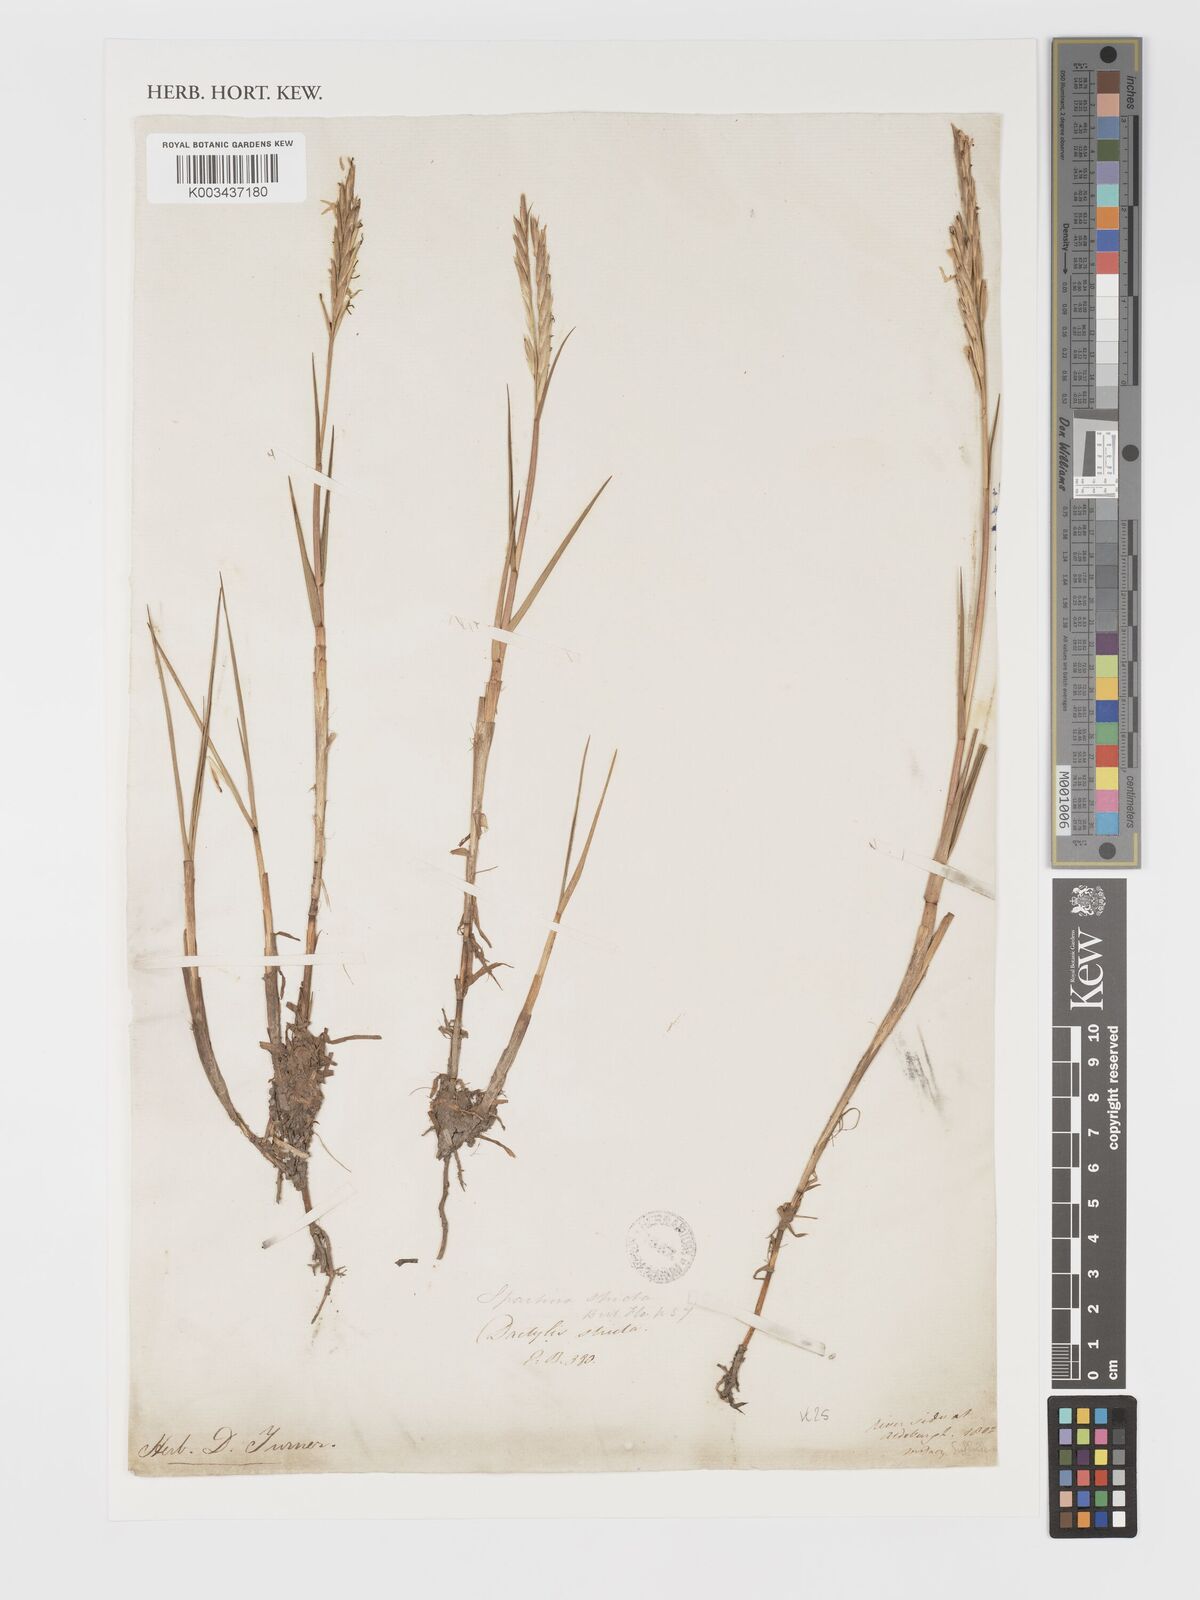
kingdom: Plantae
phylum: Tracheophyta
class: Liliopsida
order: Poales
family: Poaceae
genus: Sporobolus
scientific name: Sporobolus maritimus
